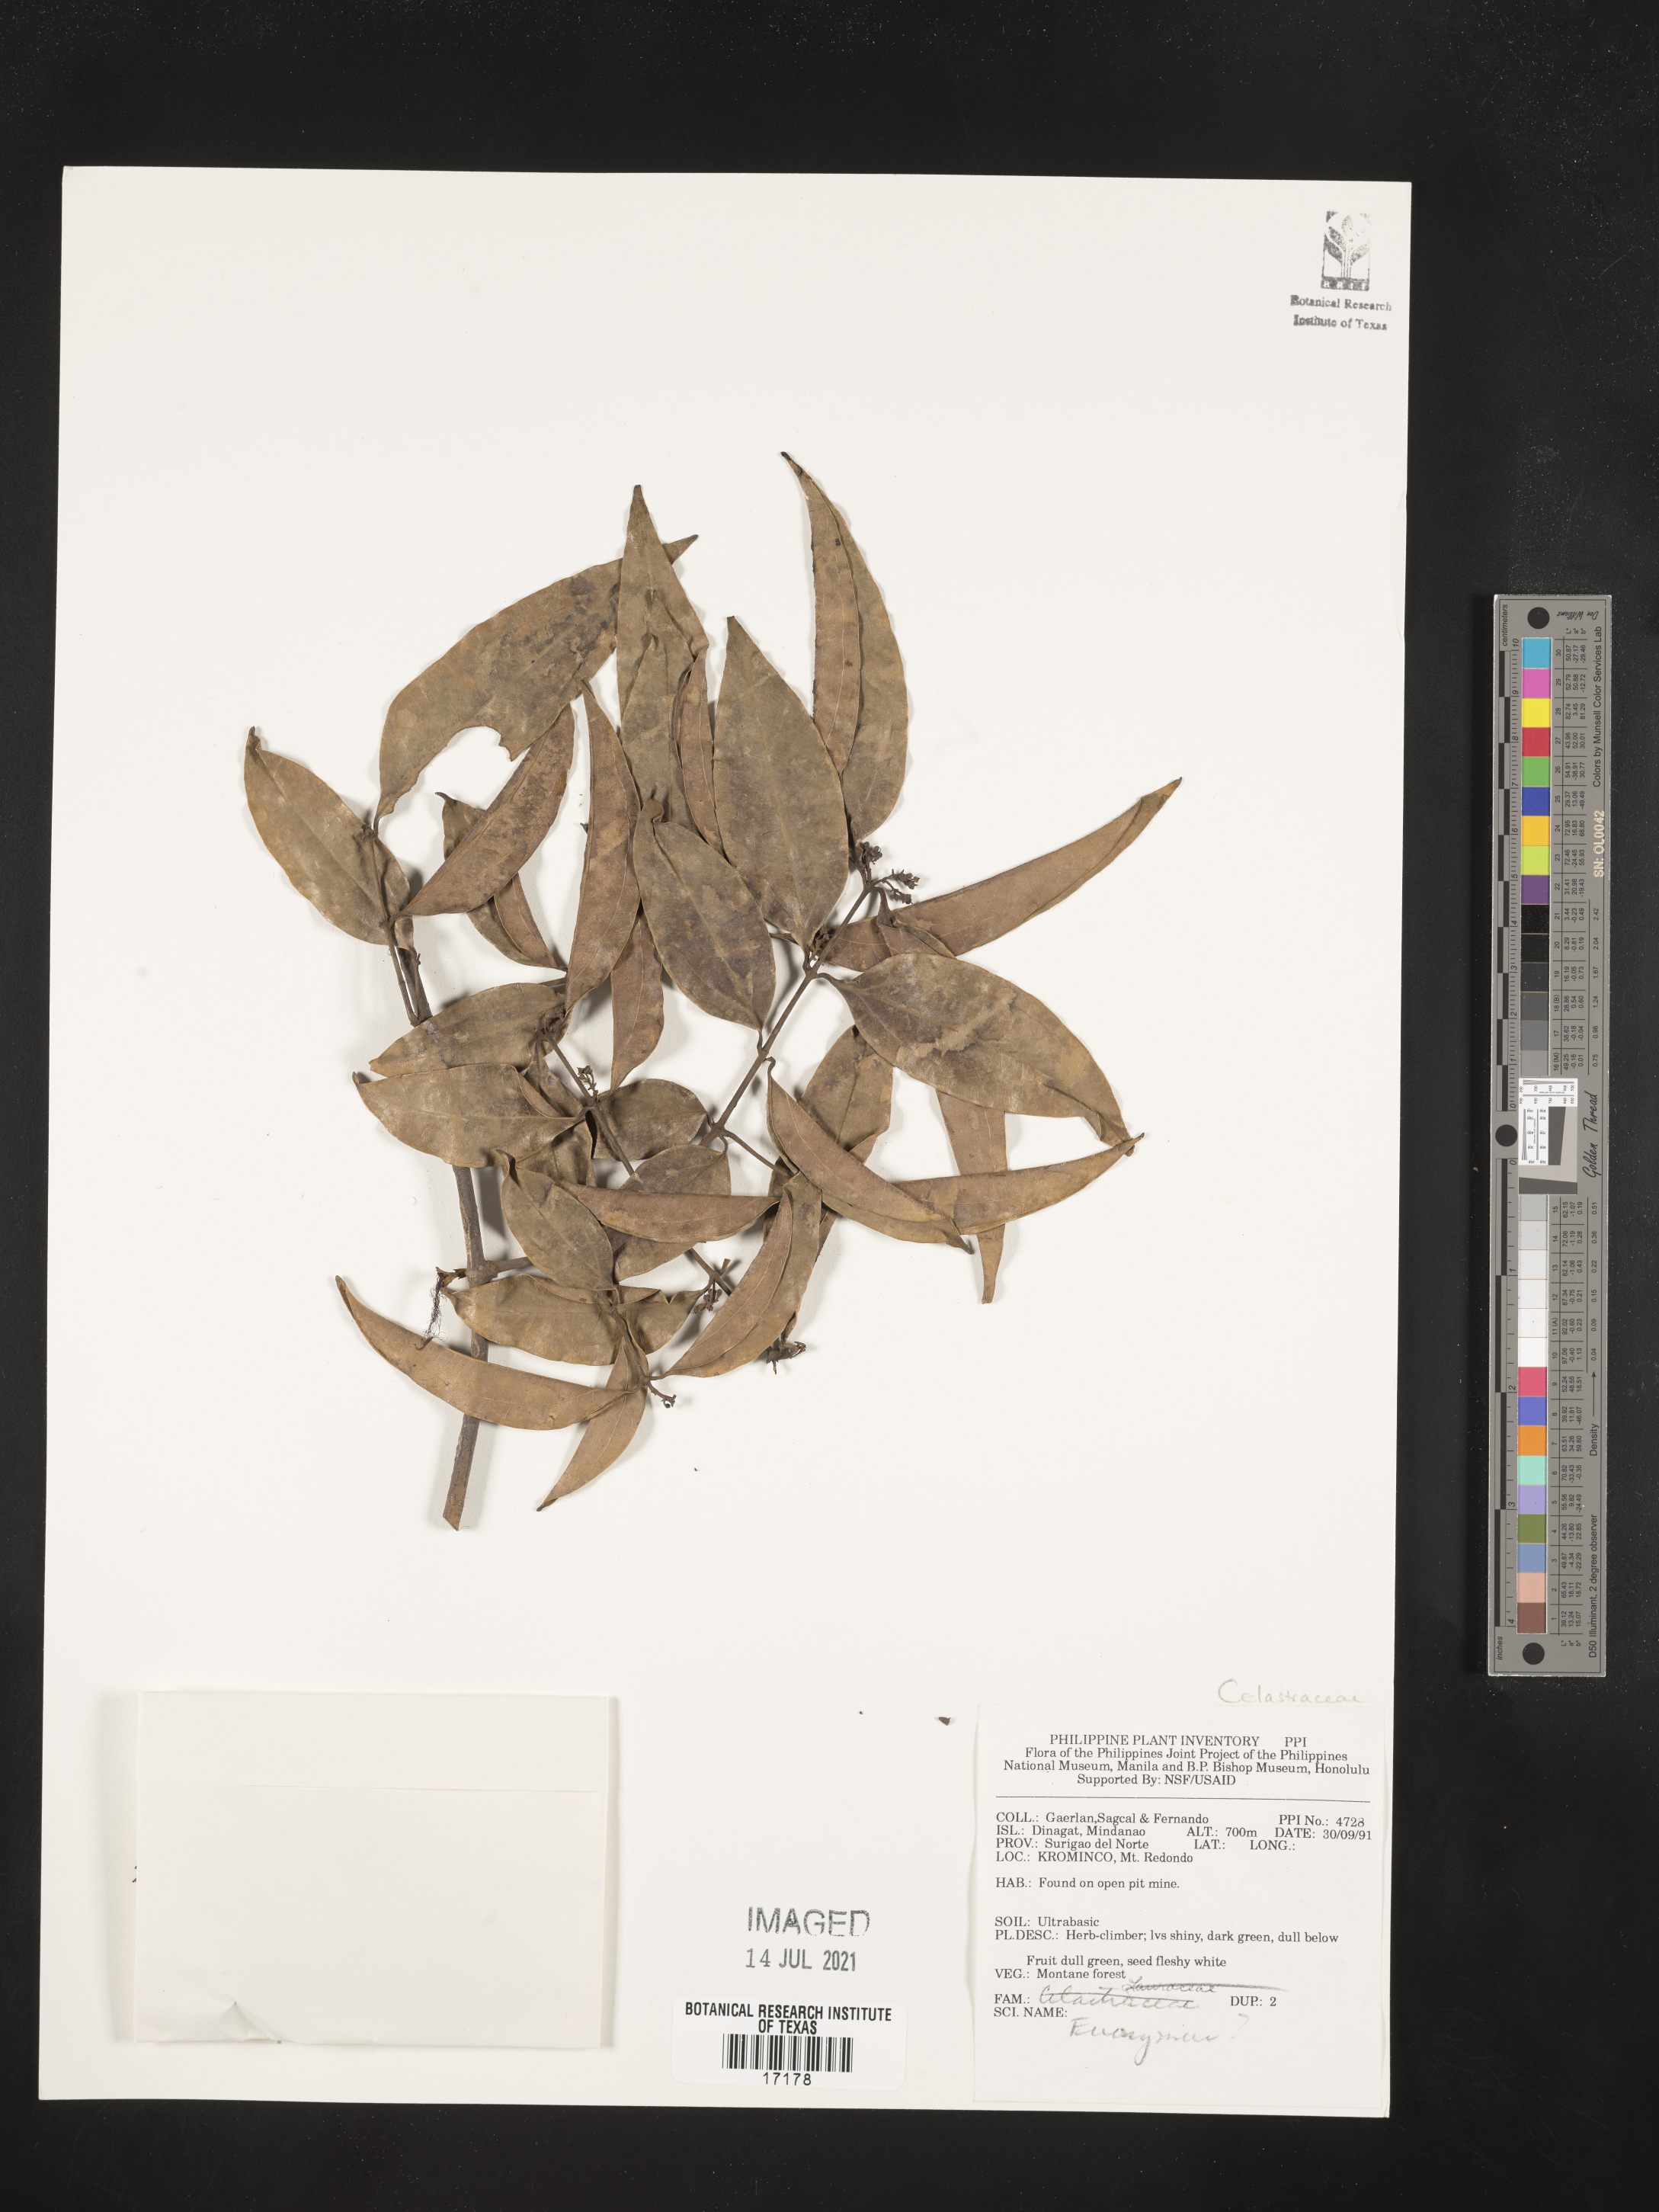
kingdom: Plantae
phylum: Tracheophyta
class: Magnoliopsida
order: Celastrales
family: Celastraceae
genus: Euonymus
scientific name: Euonymus
